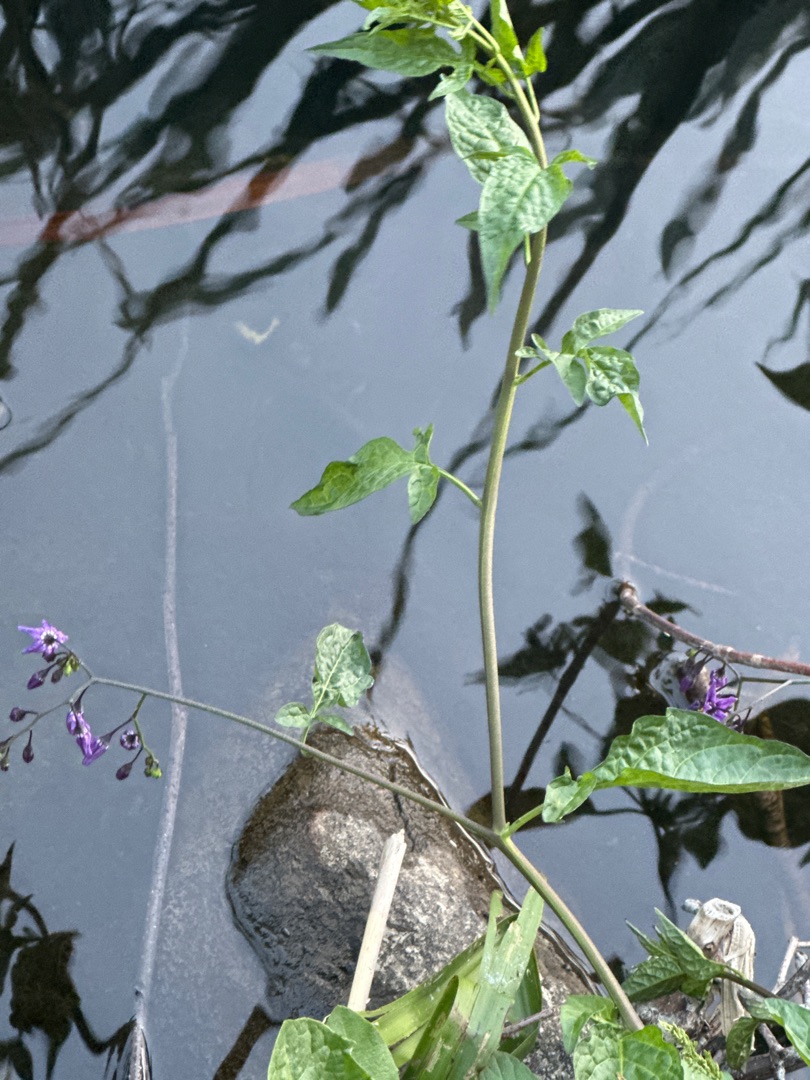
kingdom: Plantae
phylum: Tracheophyta
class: Magnoliopsida
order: Solanales
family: Solanaceae
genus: Solanum
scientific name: Solanum dulcamara
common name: Bittersød natskygge
